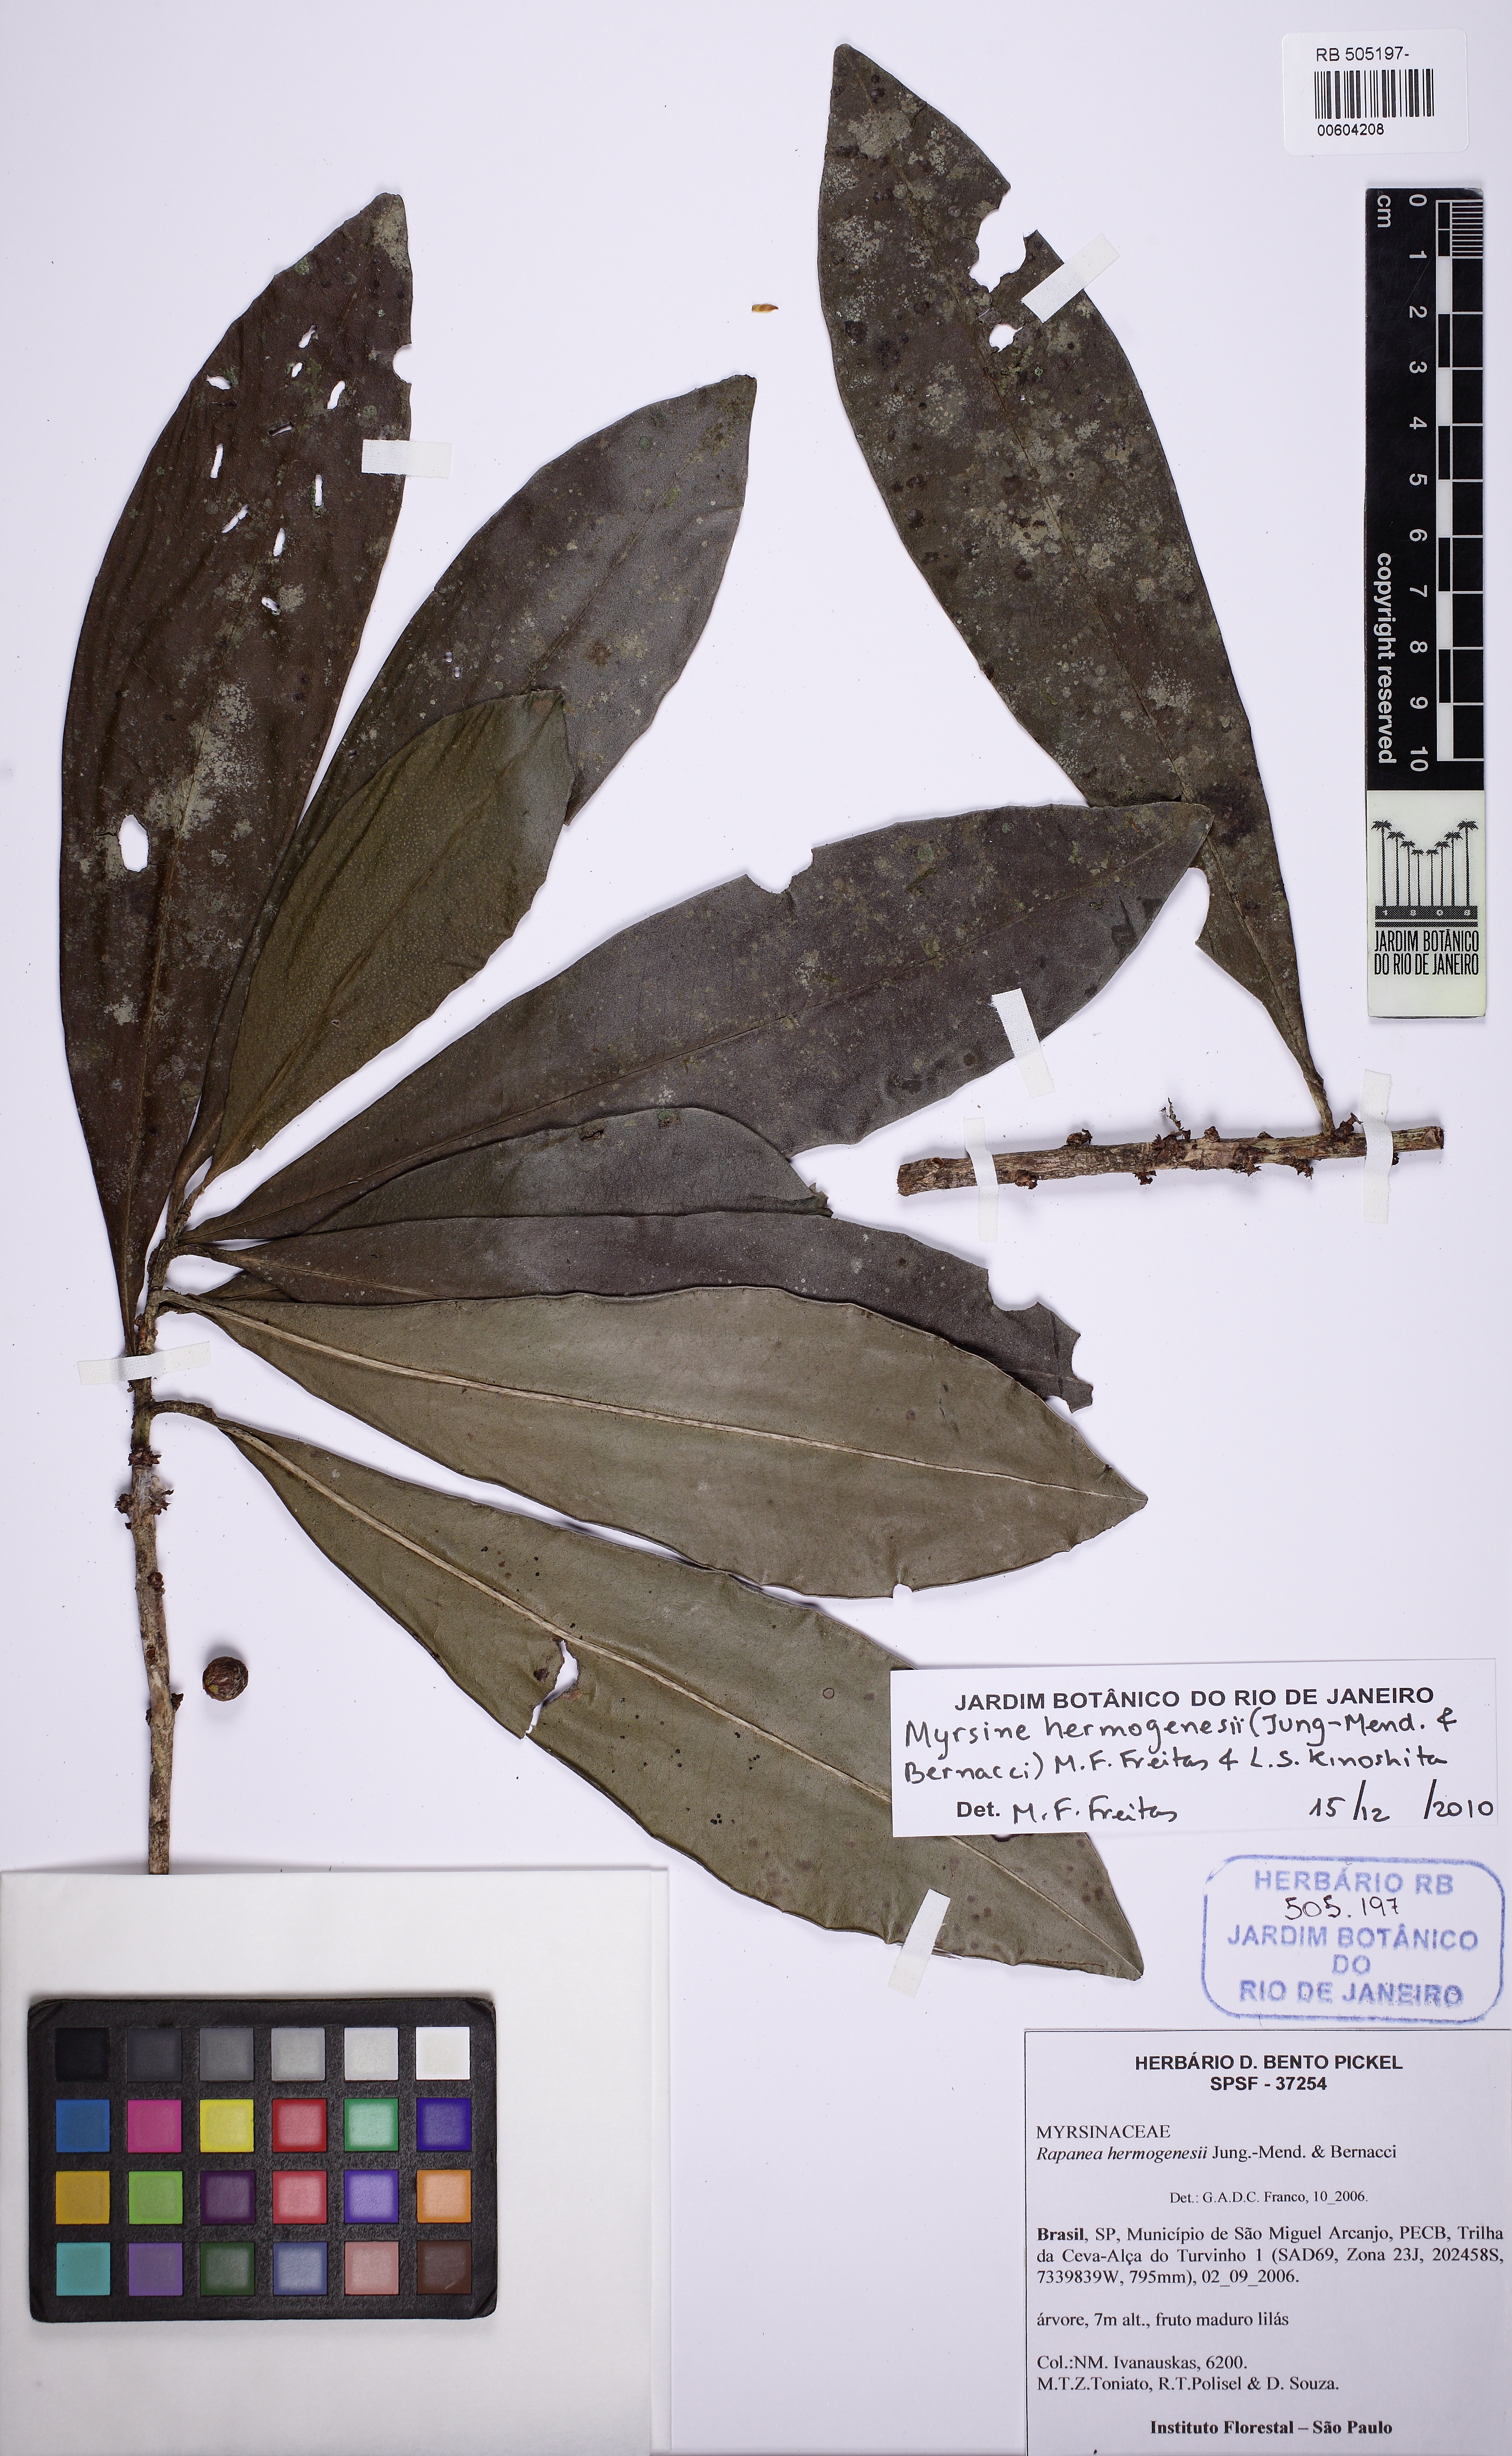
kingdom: Plantae
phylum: Tracheophyta
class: Magnoliopsida
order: Ericales
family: Primulaceae
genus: Myrsine
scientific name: Myrsine hermogenesii
